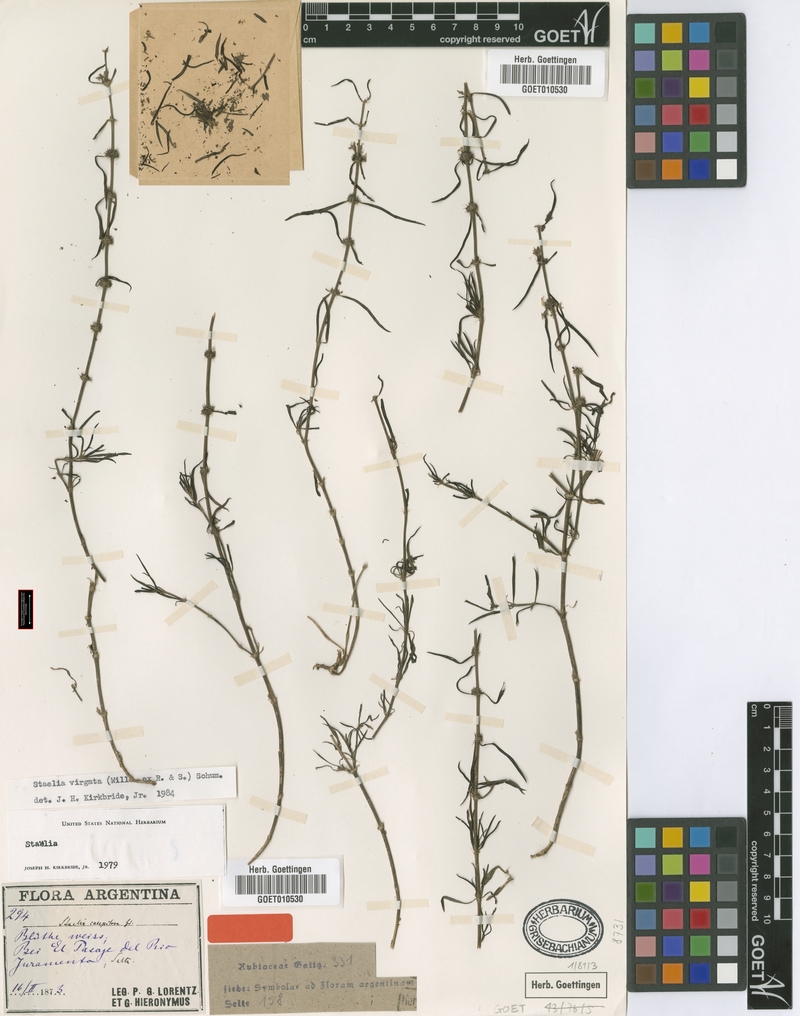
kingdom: Plantae
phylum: Tracheophyta
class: Magnoliopsida
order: Gentianales
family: Rubiaceae
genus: Staelia
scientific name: Staelia virgata
